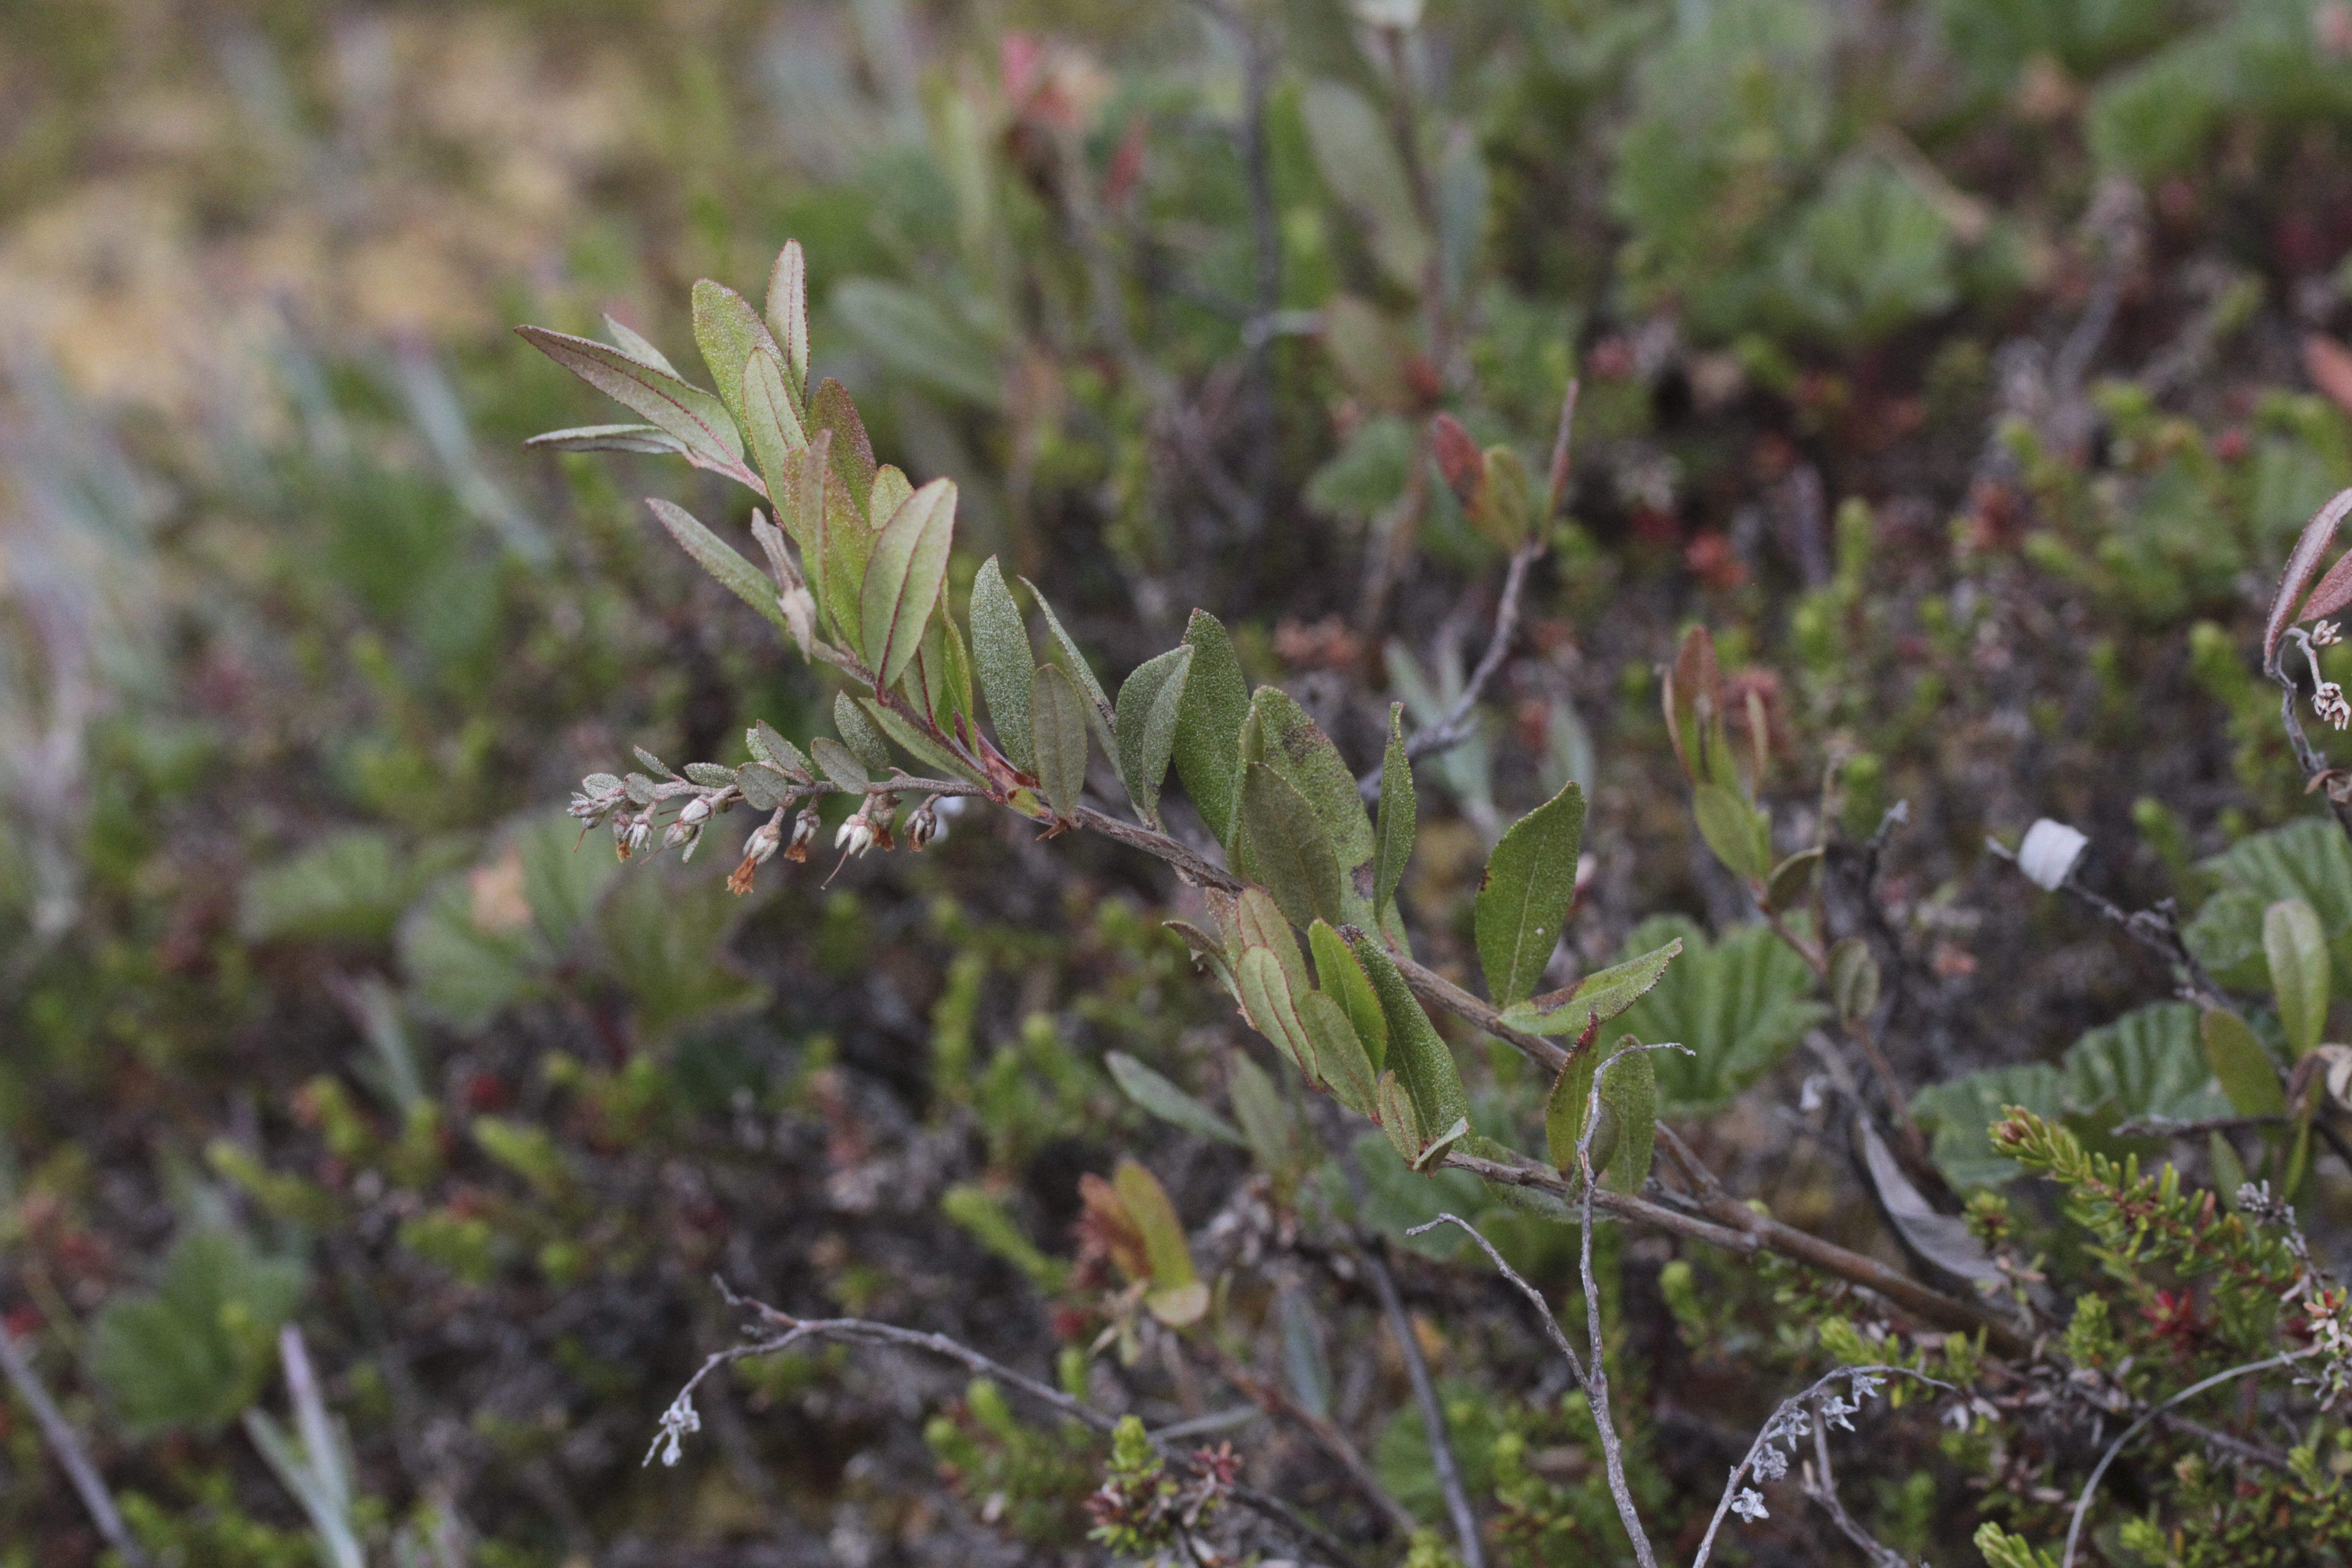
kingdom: Plantae
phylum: Tracheophyta
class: Magnoliopsida
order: Ericales
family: Ericaceae
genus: Chamaedaphne
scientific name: Chamaedaphne calyculata
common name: Leatherleaf
